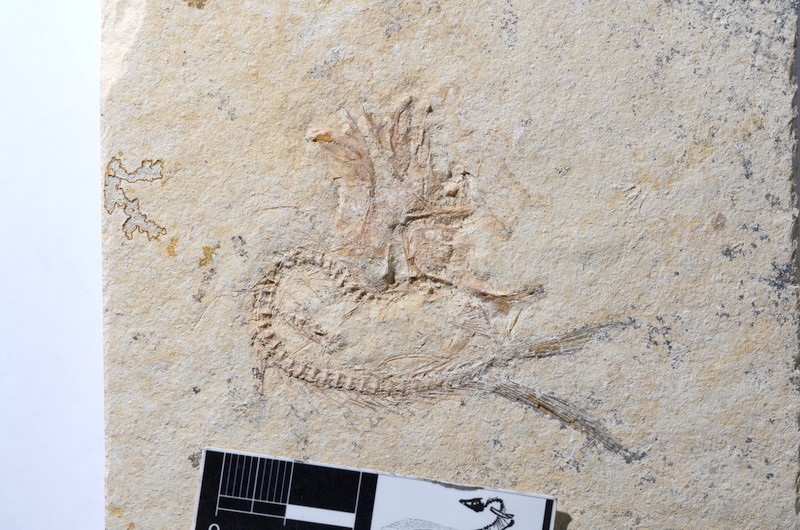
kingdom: Animalia
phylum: Chordata
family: Ascalaboidae
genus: Tharsis
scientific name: Tharsis dubius
